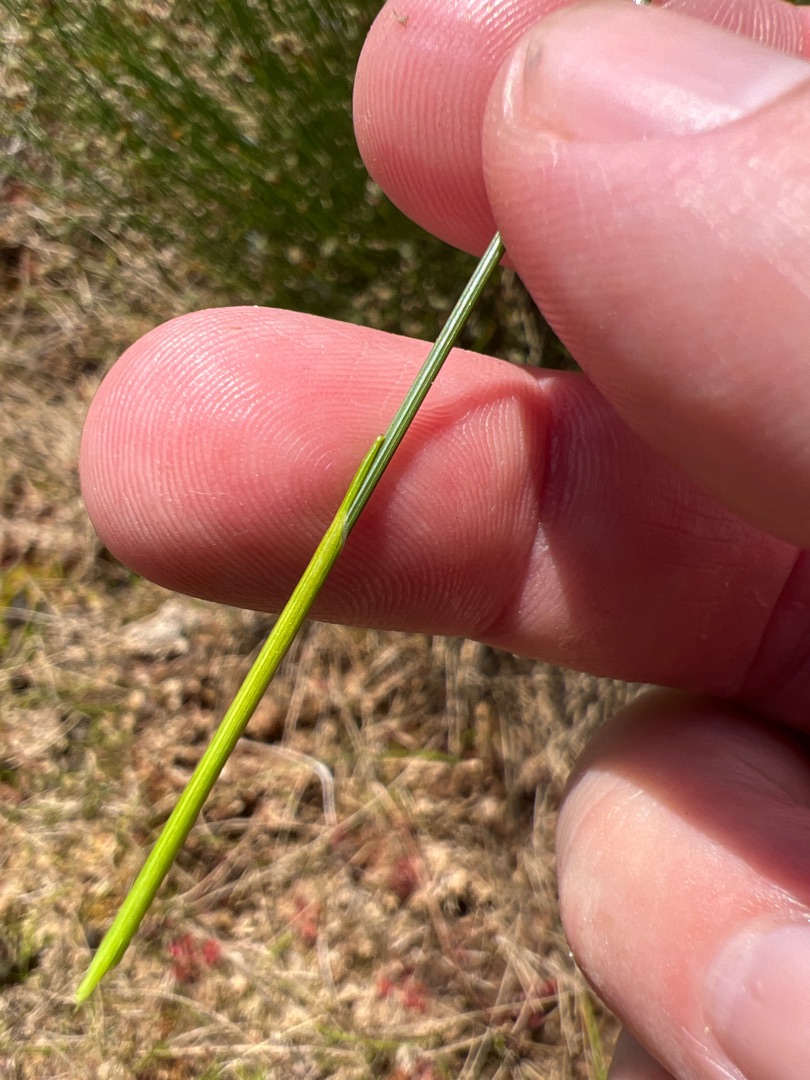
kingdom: Plantae
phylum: Tracheophyta
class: Liliopsida
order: Poales
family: Cyperaceae
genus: Trichophorum
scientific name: Trichophorum cespitosum
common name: Vestlig tuekogleaks
